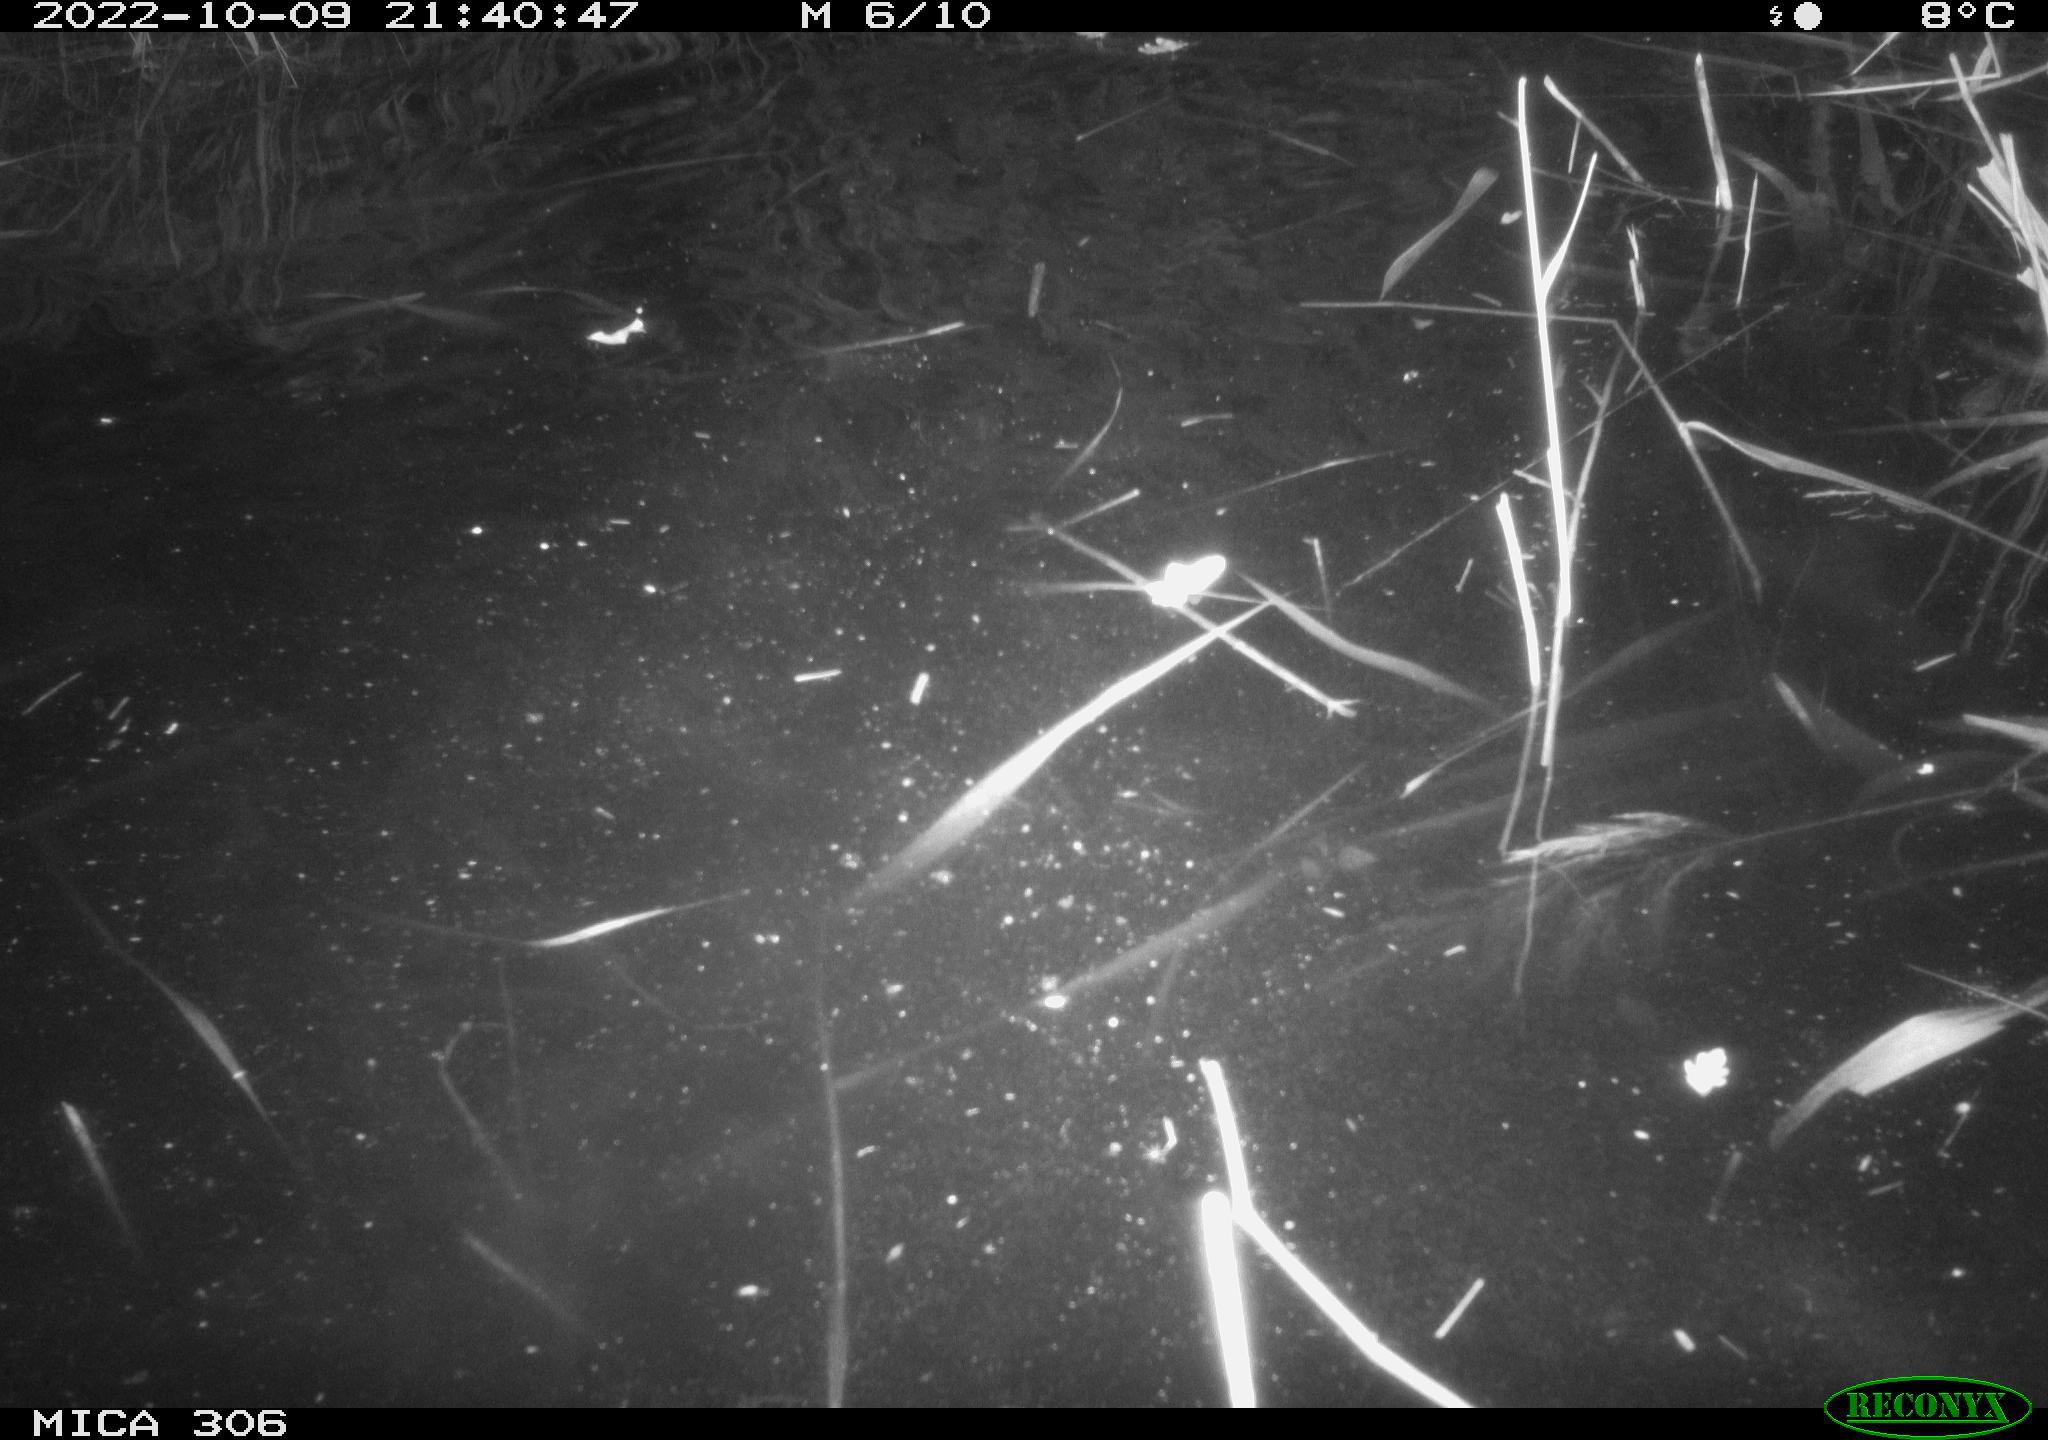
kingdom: Animalia
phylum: Chordata
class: Mammalia
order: Rodentia
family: Muridae
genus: Rattus
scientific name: Rattus norvegicus
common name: Brown rat
